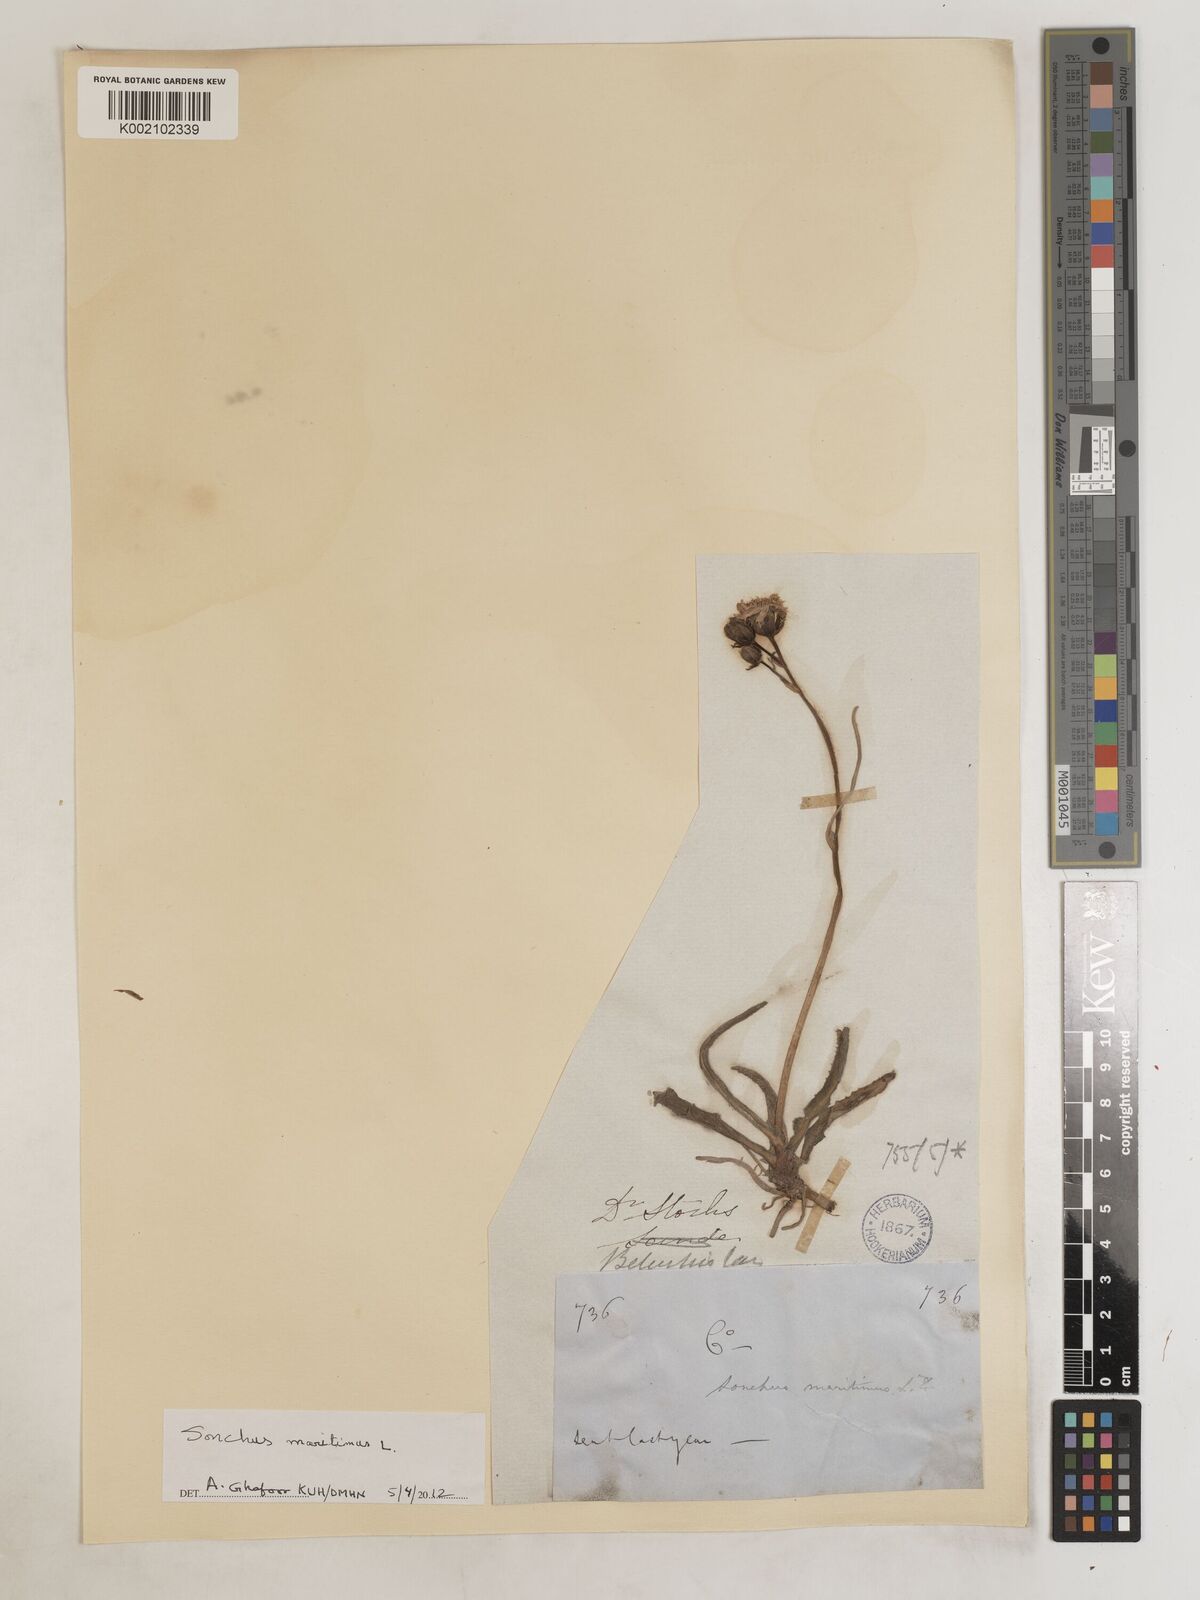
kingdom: Plantae
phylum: Tracheophyta
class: Magnoliopsida
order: Asterales
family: Asteraceae
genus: Sonchus
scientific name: Sonchus maritimus
